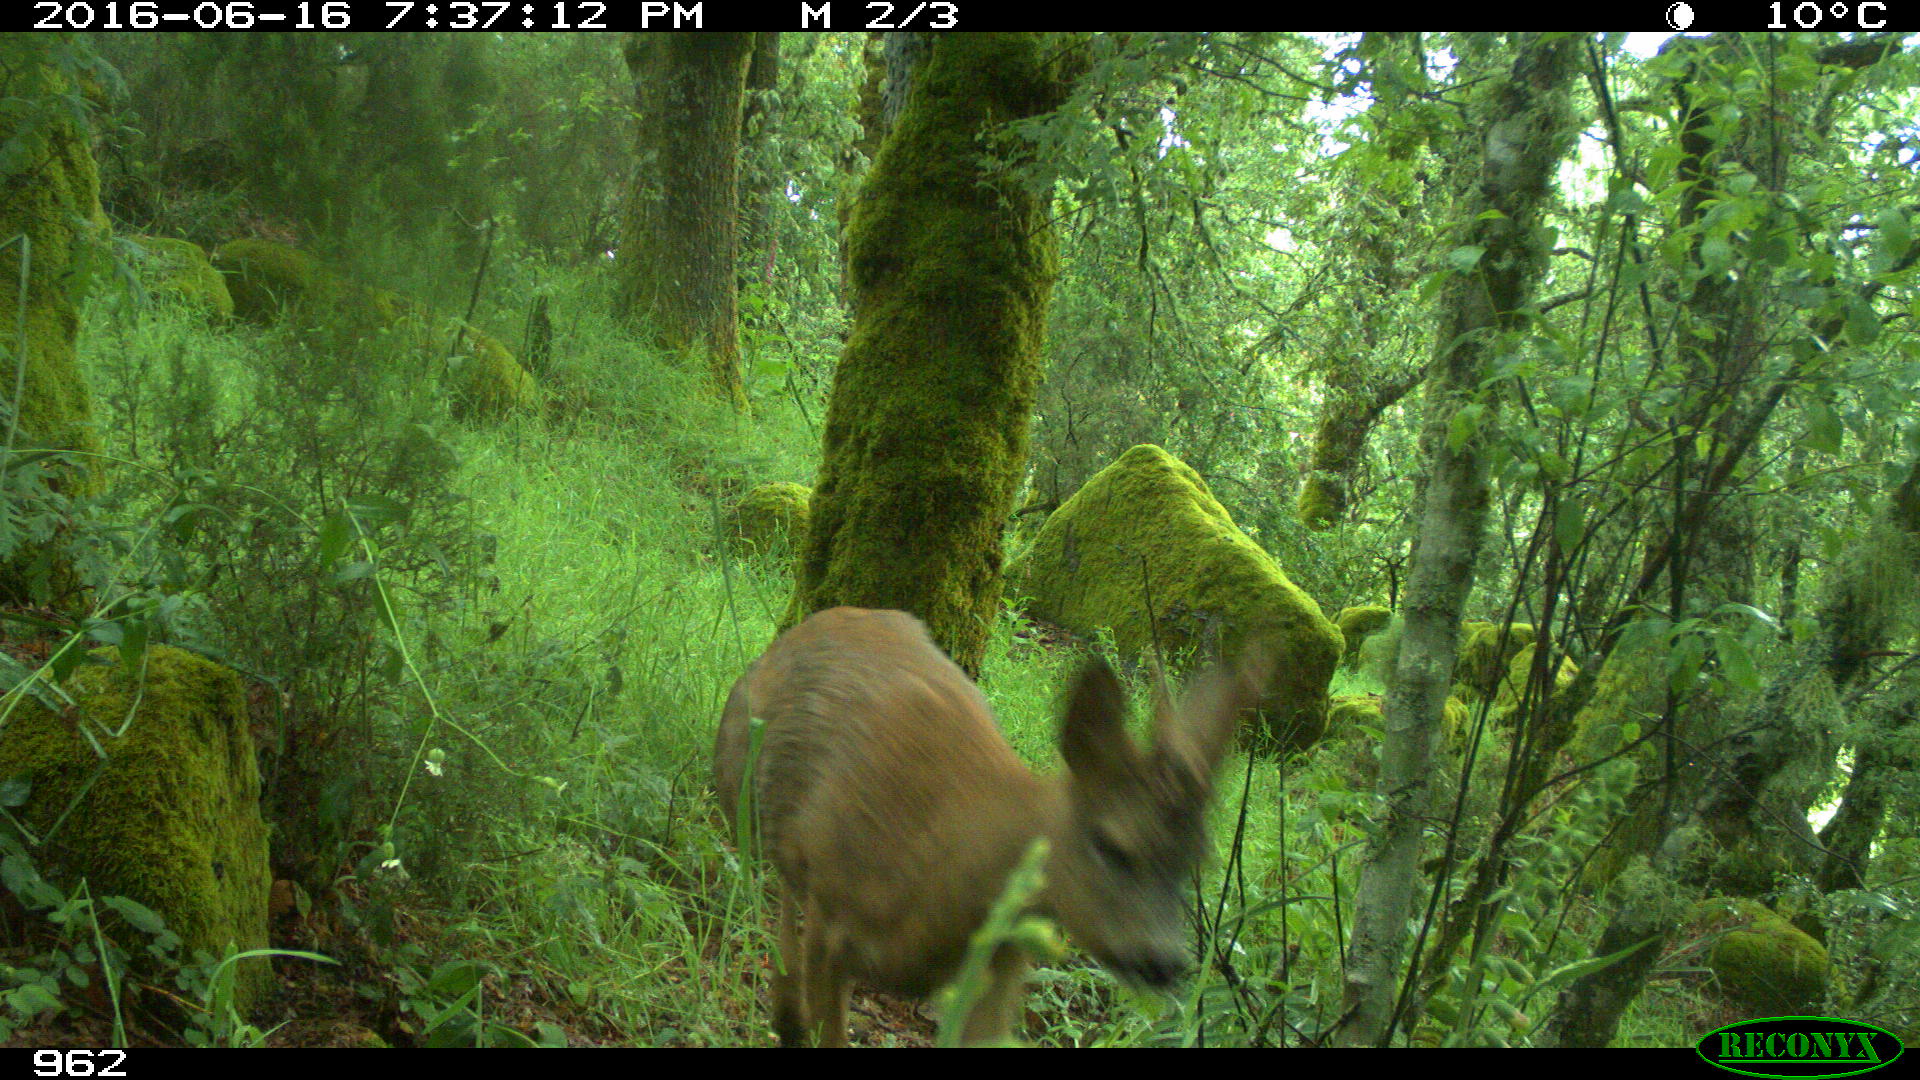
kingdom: Animalia
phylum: Chordata
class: Mammalia
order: Artiodactyla
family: Cervidae
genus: Capreolus
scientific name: Capreolus capreolus
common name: Western roe deer
